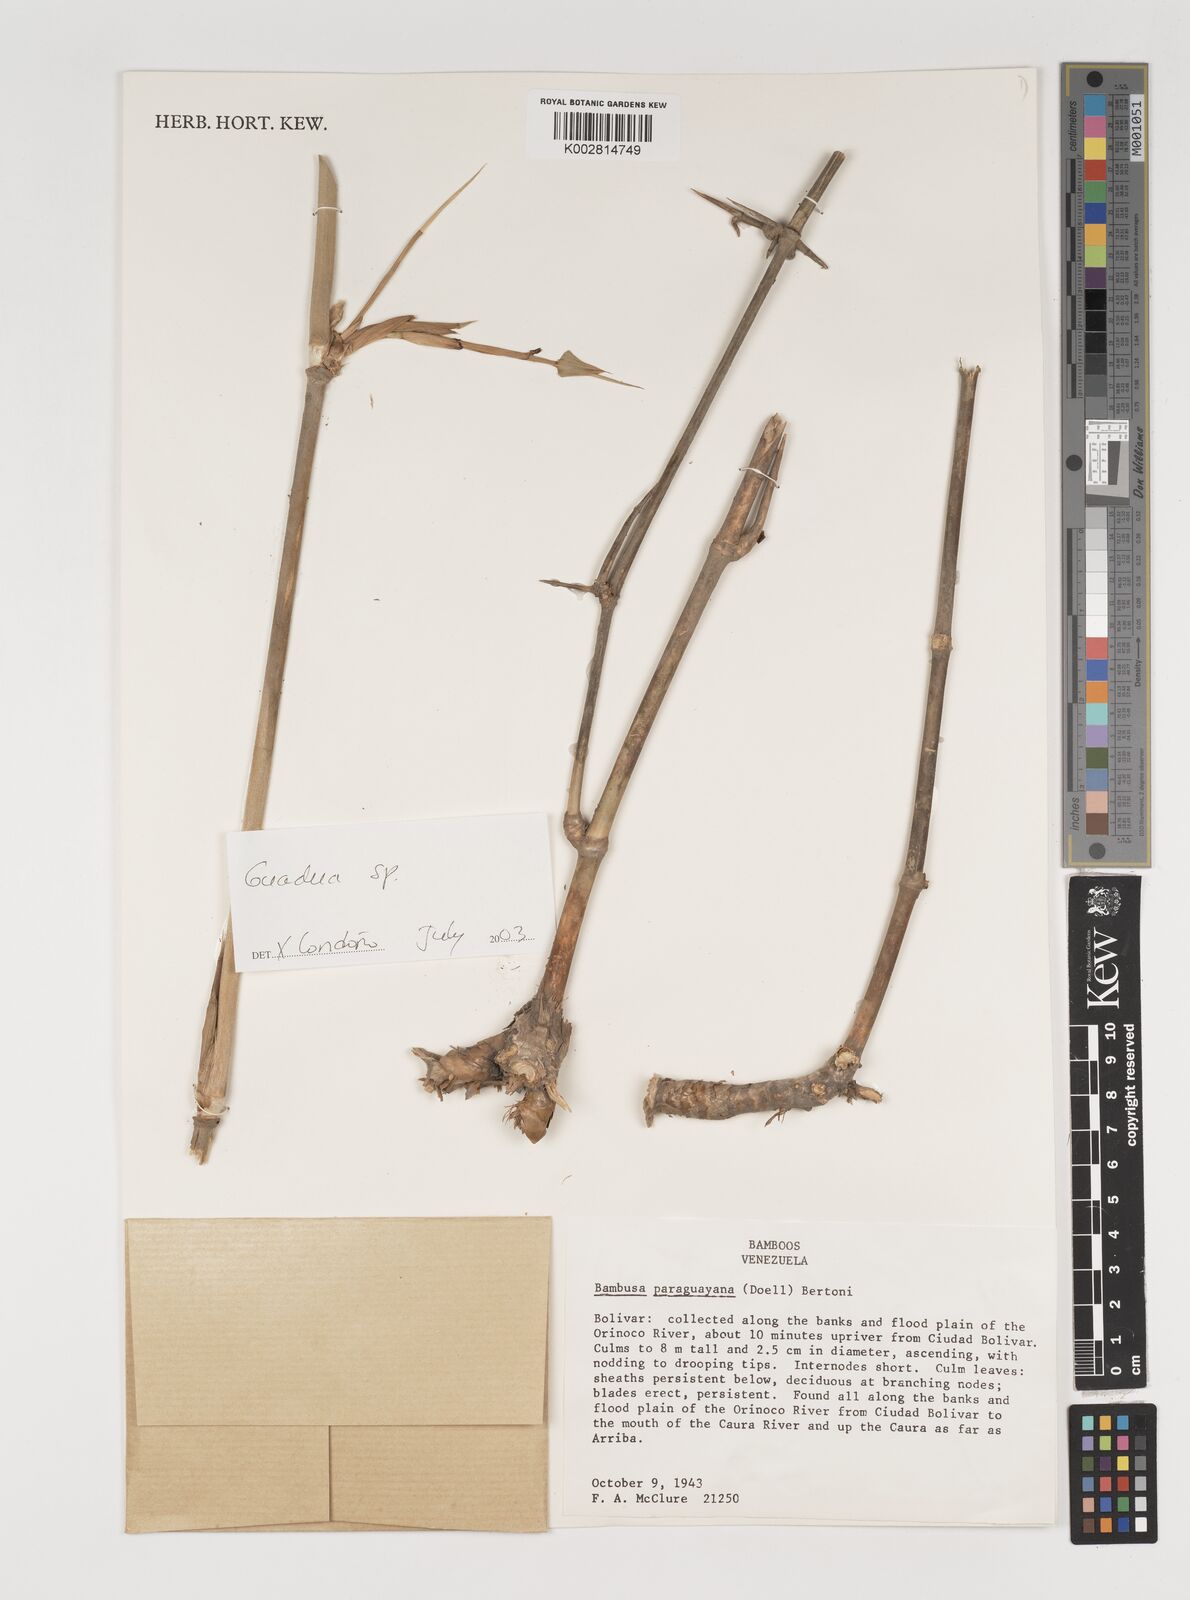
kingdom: Plantae
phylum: Tracheophyta
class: Liliopsida
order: Poales
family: Poaceae
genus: Guadua
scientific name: Guadua
